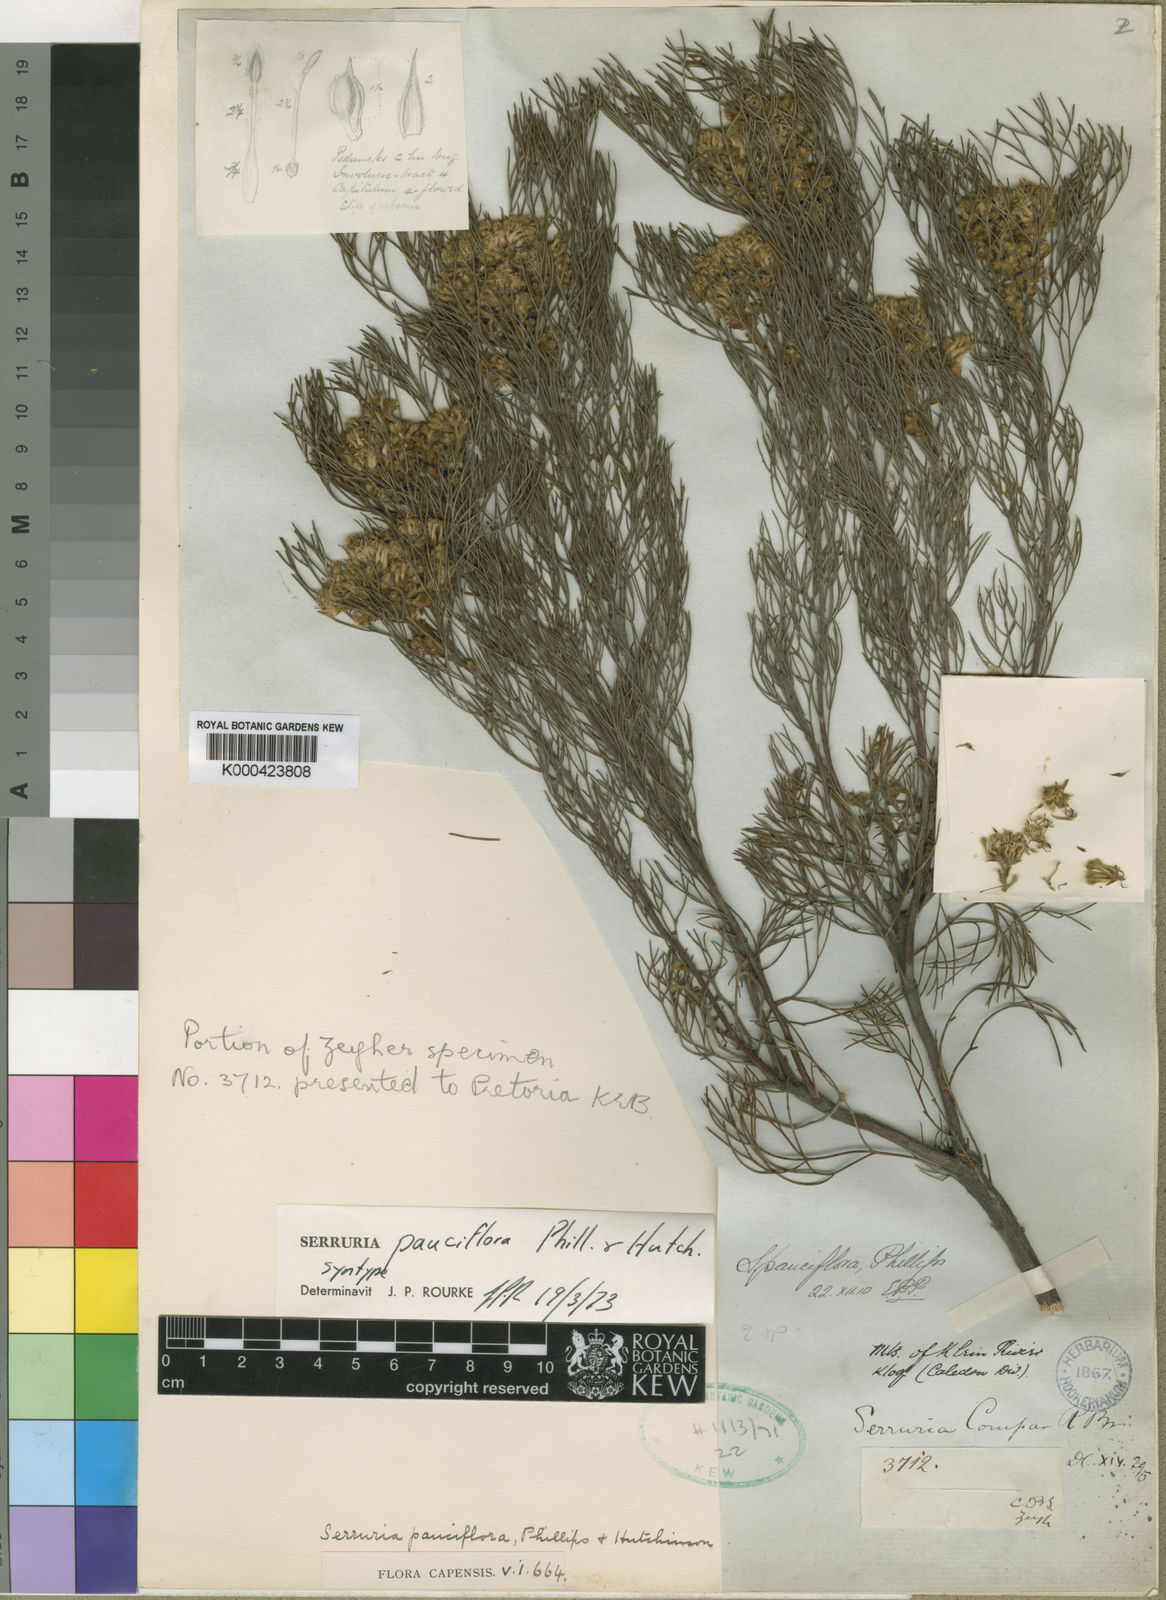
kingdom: Plantae
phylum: Tracheophyta
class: Magnoliopsida
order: Proteales
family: Proteaceae
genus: Serruria
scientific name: Serruria fasciflora
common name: Common pin spiderhead
